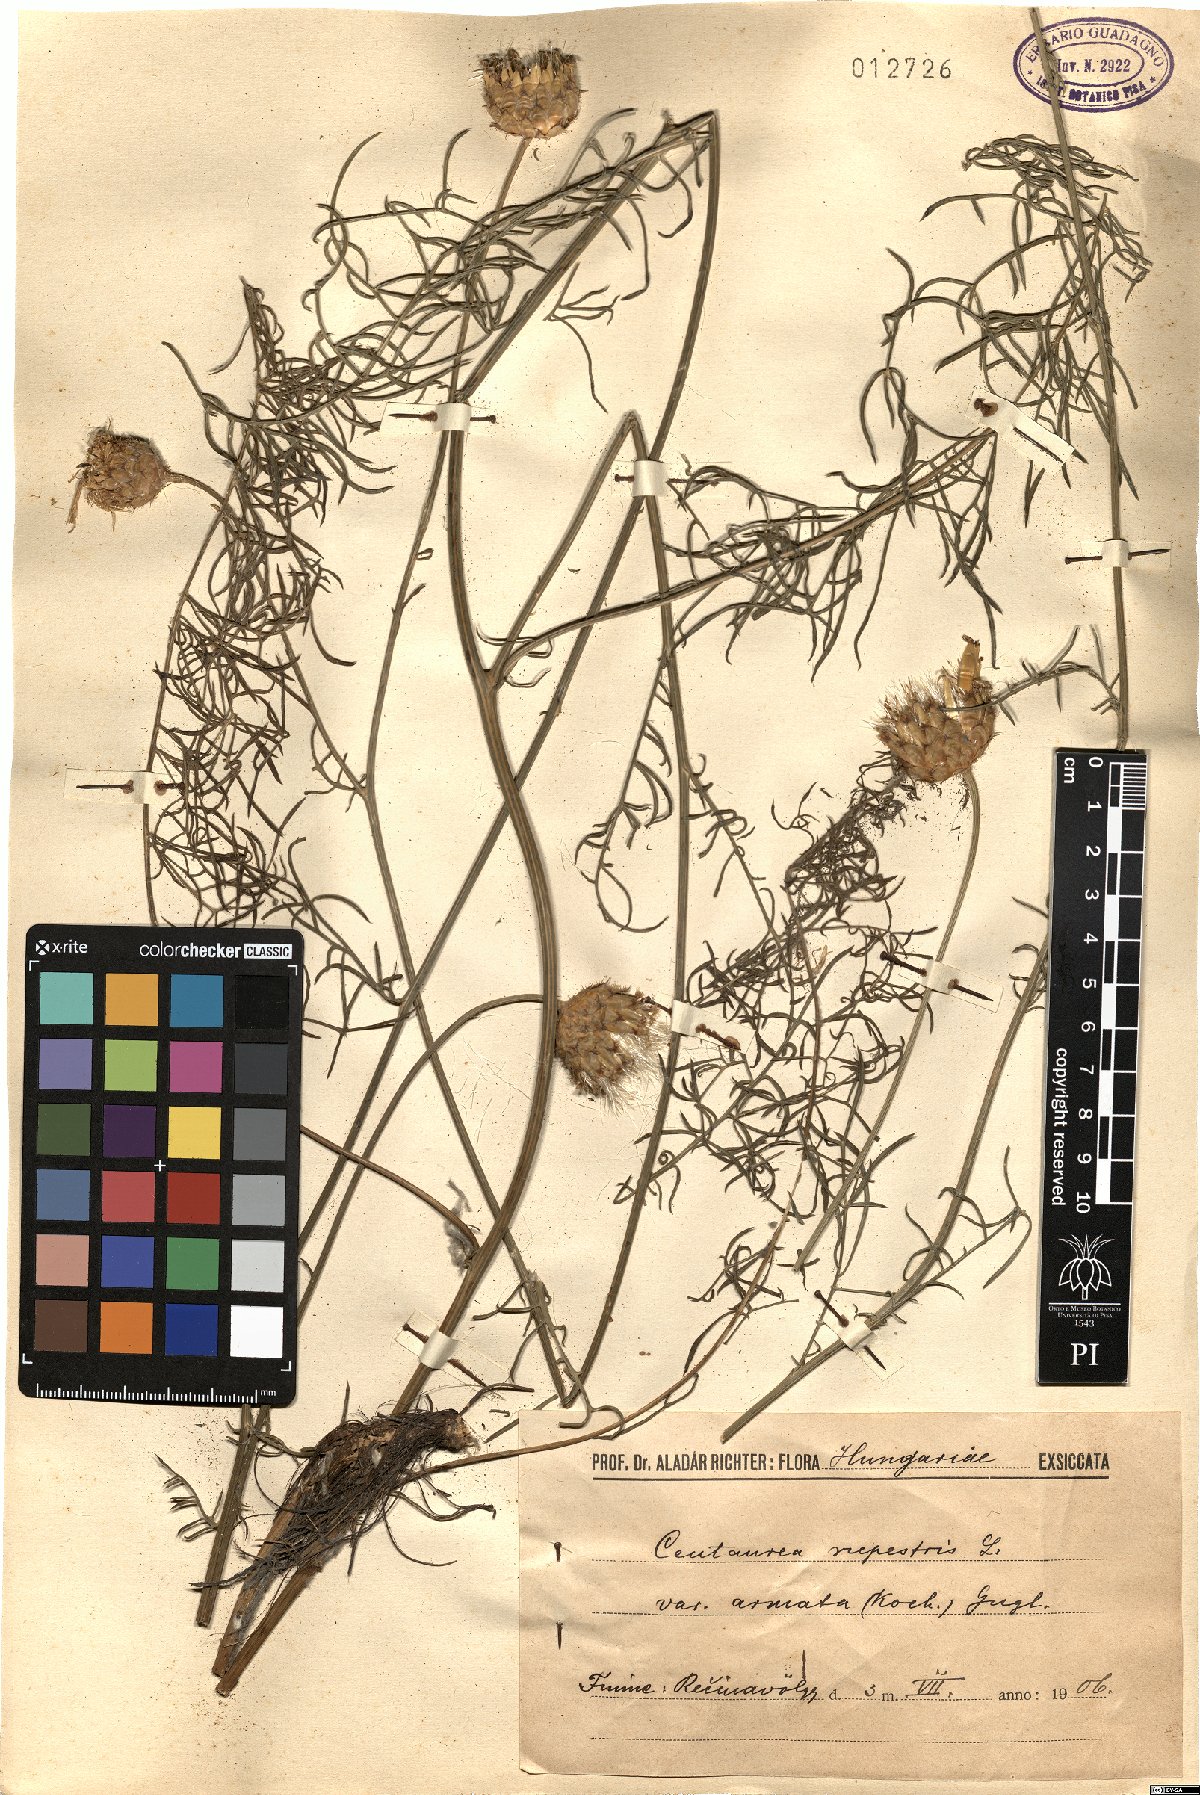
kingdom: Plantae
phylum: Tracheophyta
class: Magnoliopsida
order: Asterales
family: Asteraceae
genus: Centaurea
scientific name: Centaurea rupestris
